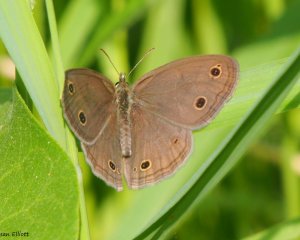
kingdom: Animalia
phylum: Arthropoda
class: Insecta
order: Lepidoptera
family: Nymphalidae
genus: Euptychia
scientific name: Euptychia cymela
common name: Little Wood Satyr
